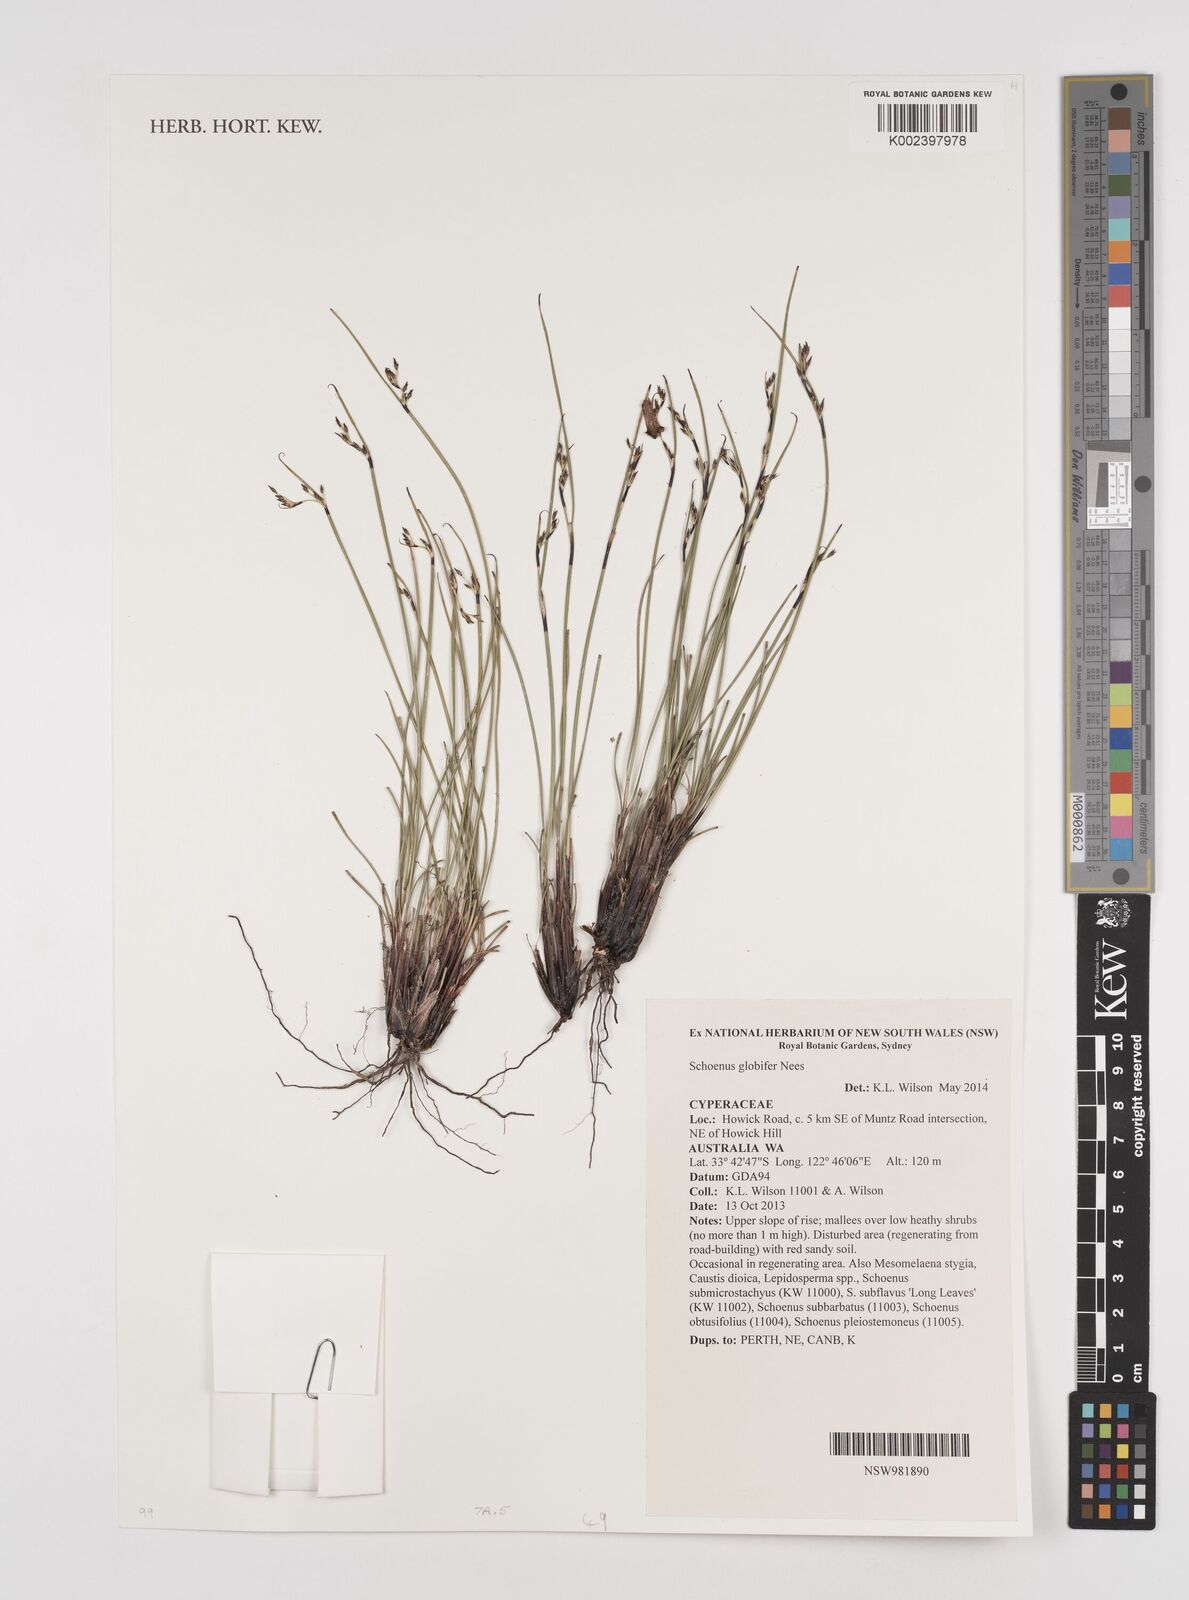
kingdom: Plantae
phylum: Tracheophyta
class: Liliopsida
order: Poales
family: Cyperaceae
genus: Schoenus
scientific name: Schoenus globifer
